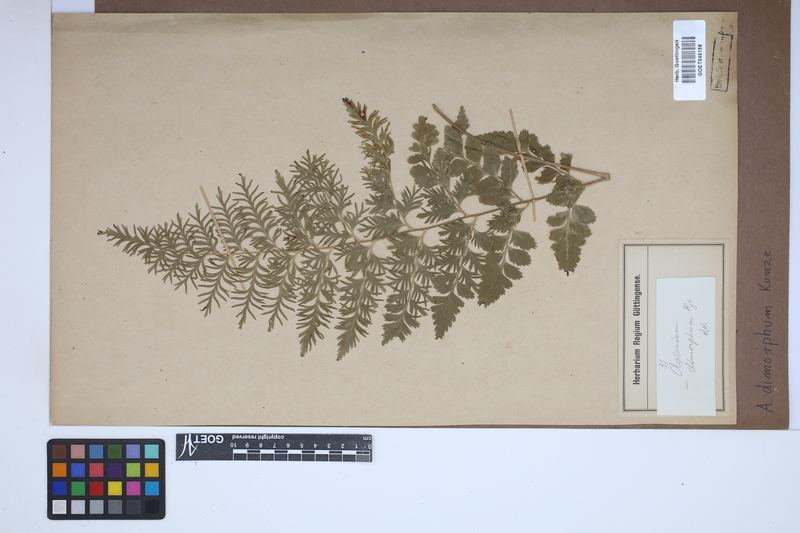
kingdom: Plantae
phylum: Tracheophyta
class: Polypodiopsida
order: Polypodiales
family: Aspleniaceae
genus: Asplenium
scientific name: Asplenium dimorphum
